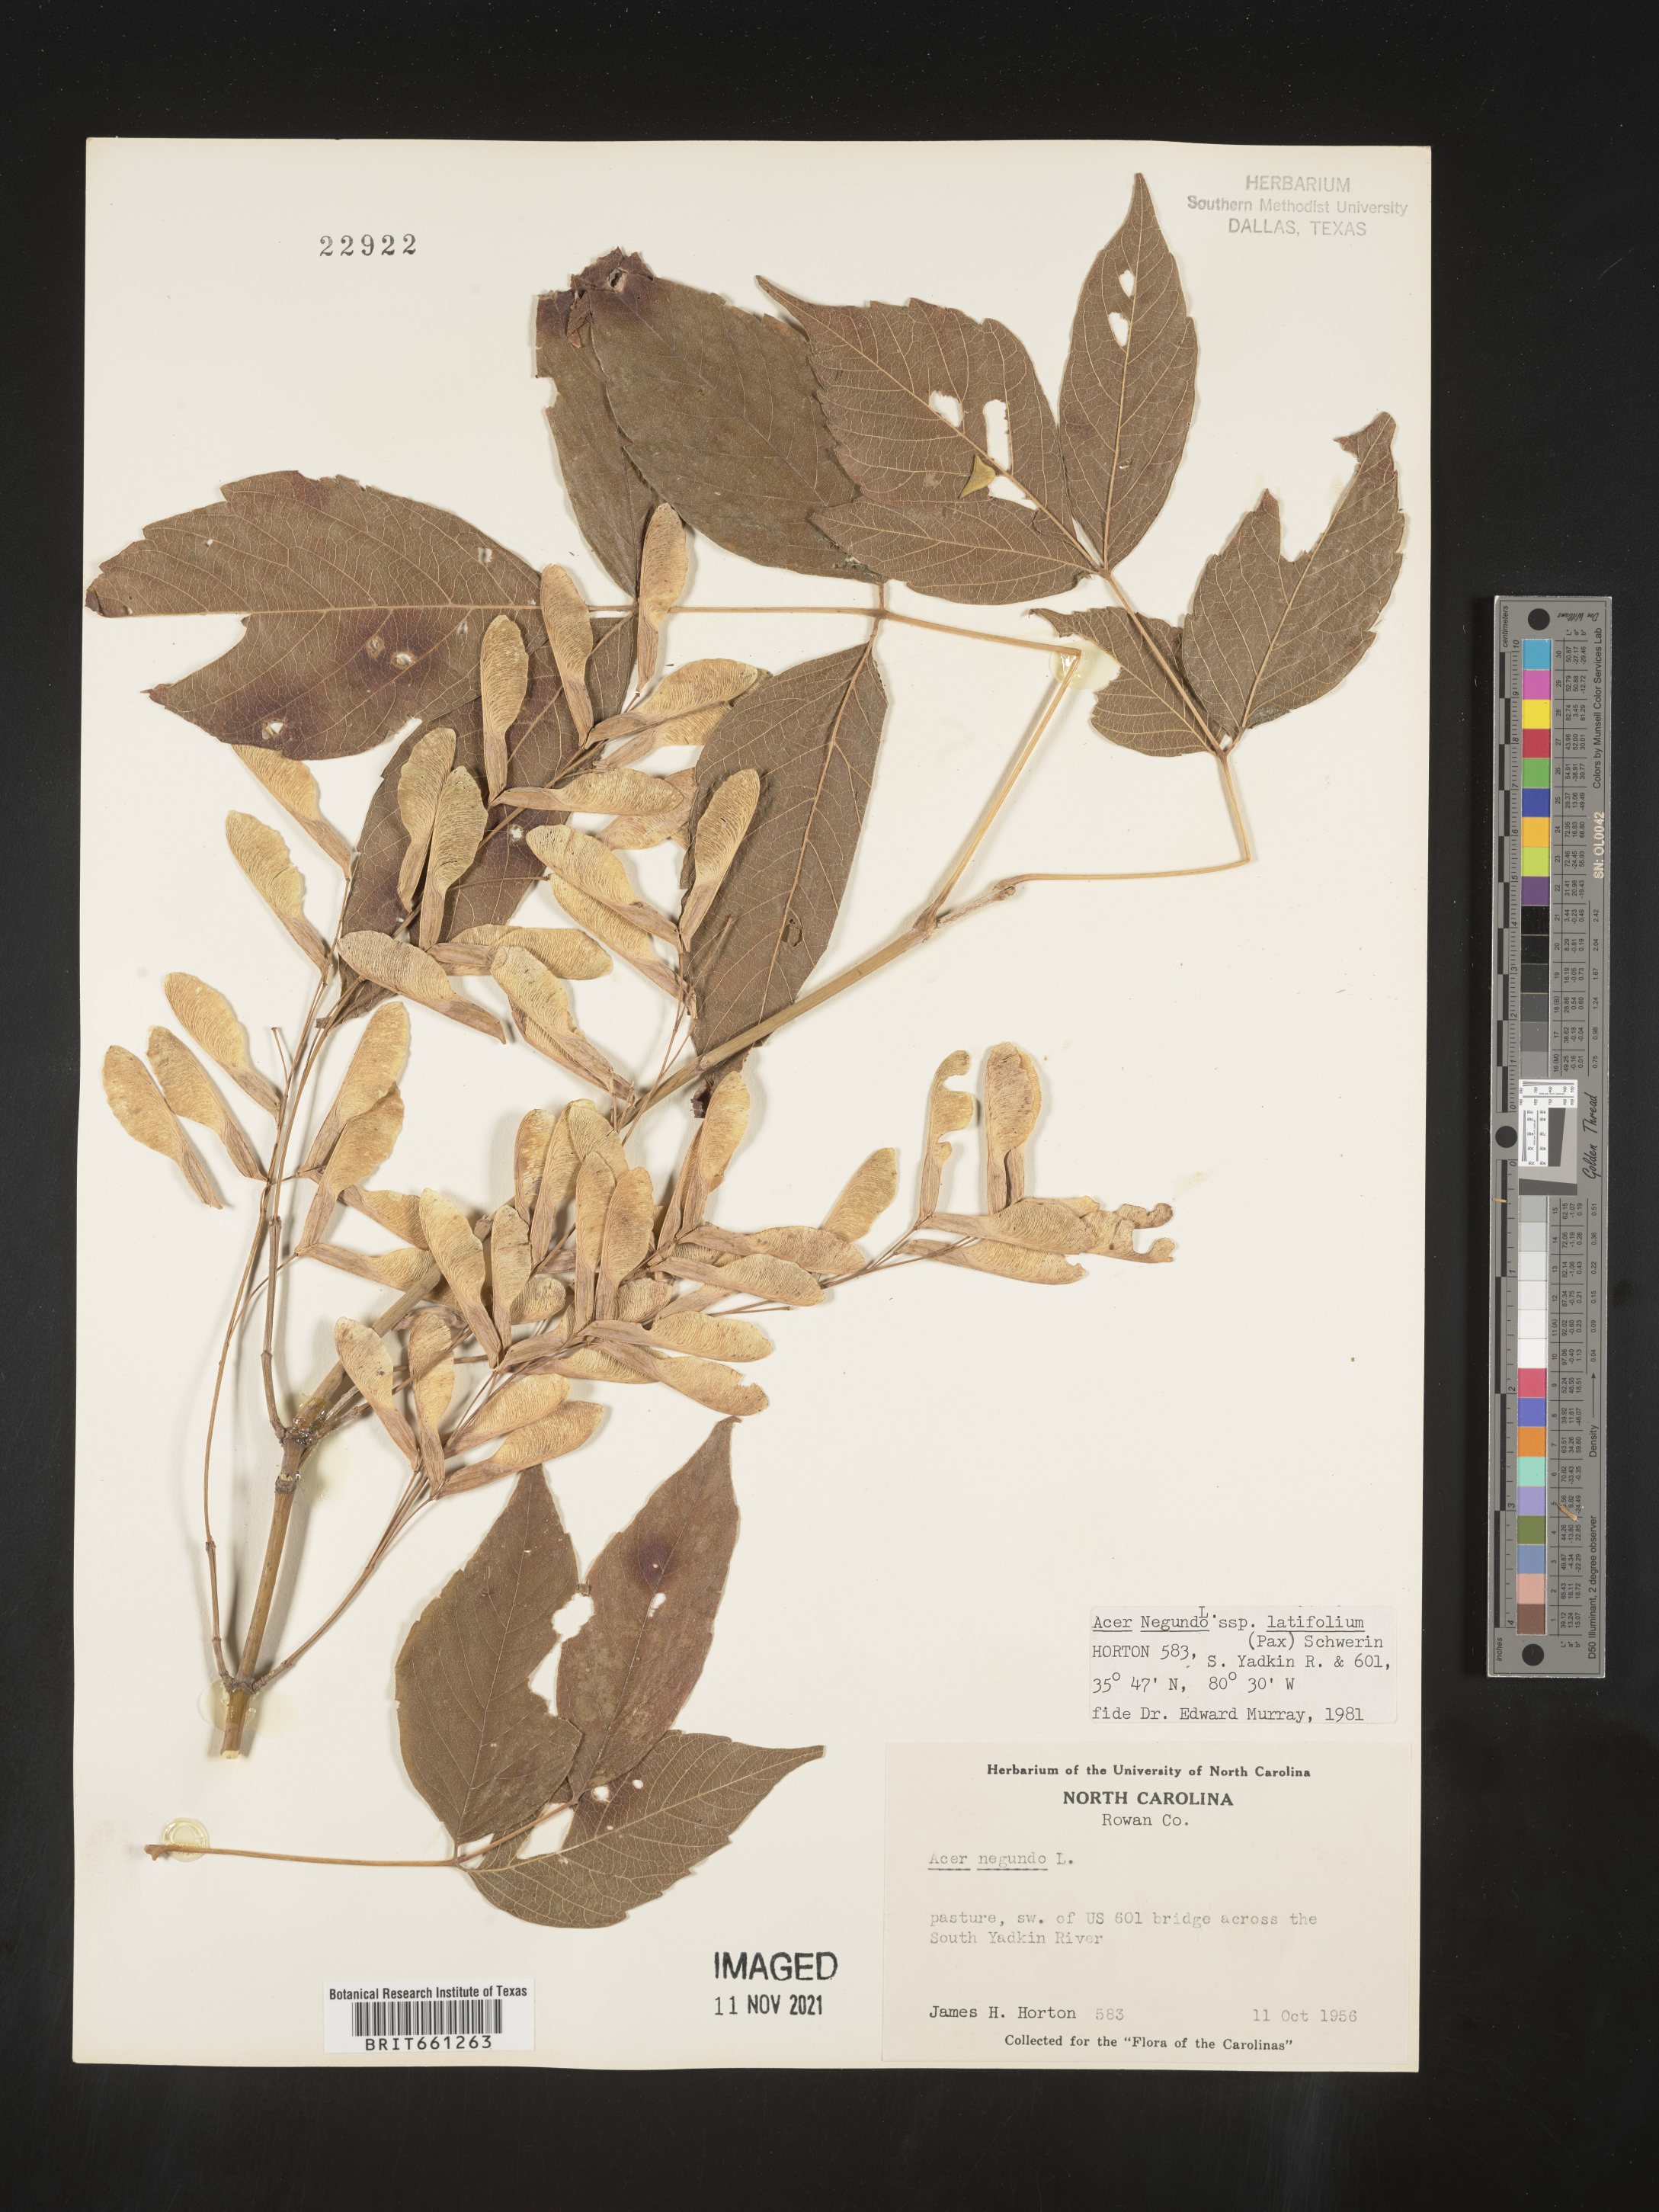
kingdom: Plantae
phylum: Tracheophyta
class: Magnoliopsida
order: Sapindales
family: Sapindaceae
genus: Acer
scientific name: Acer negundo
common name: Ashleaf maple
